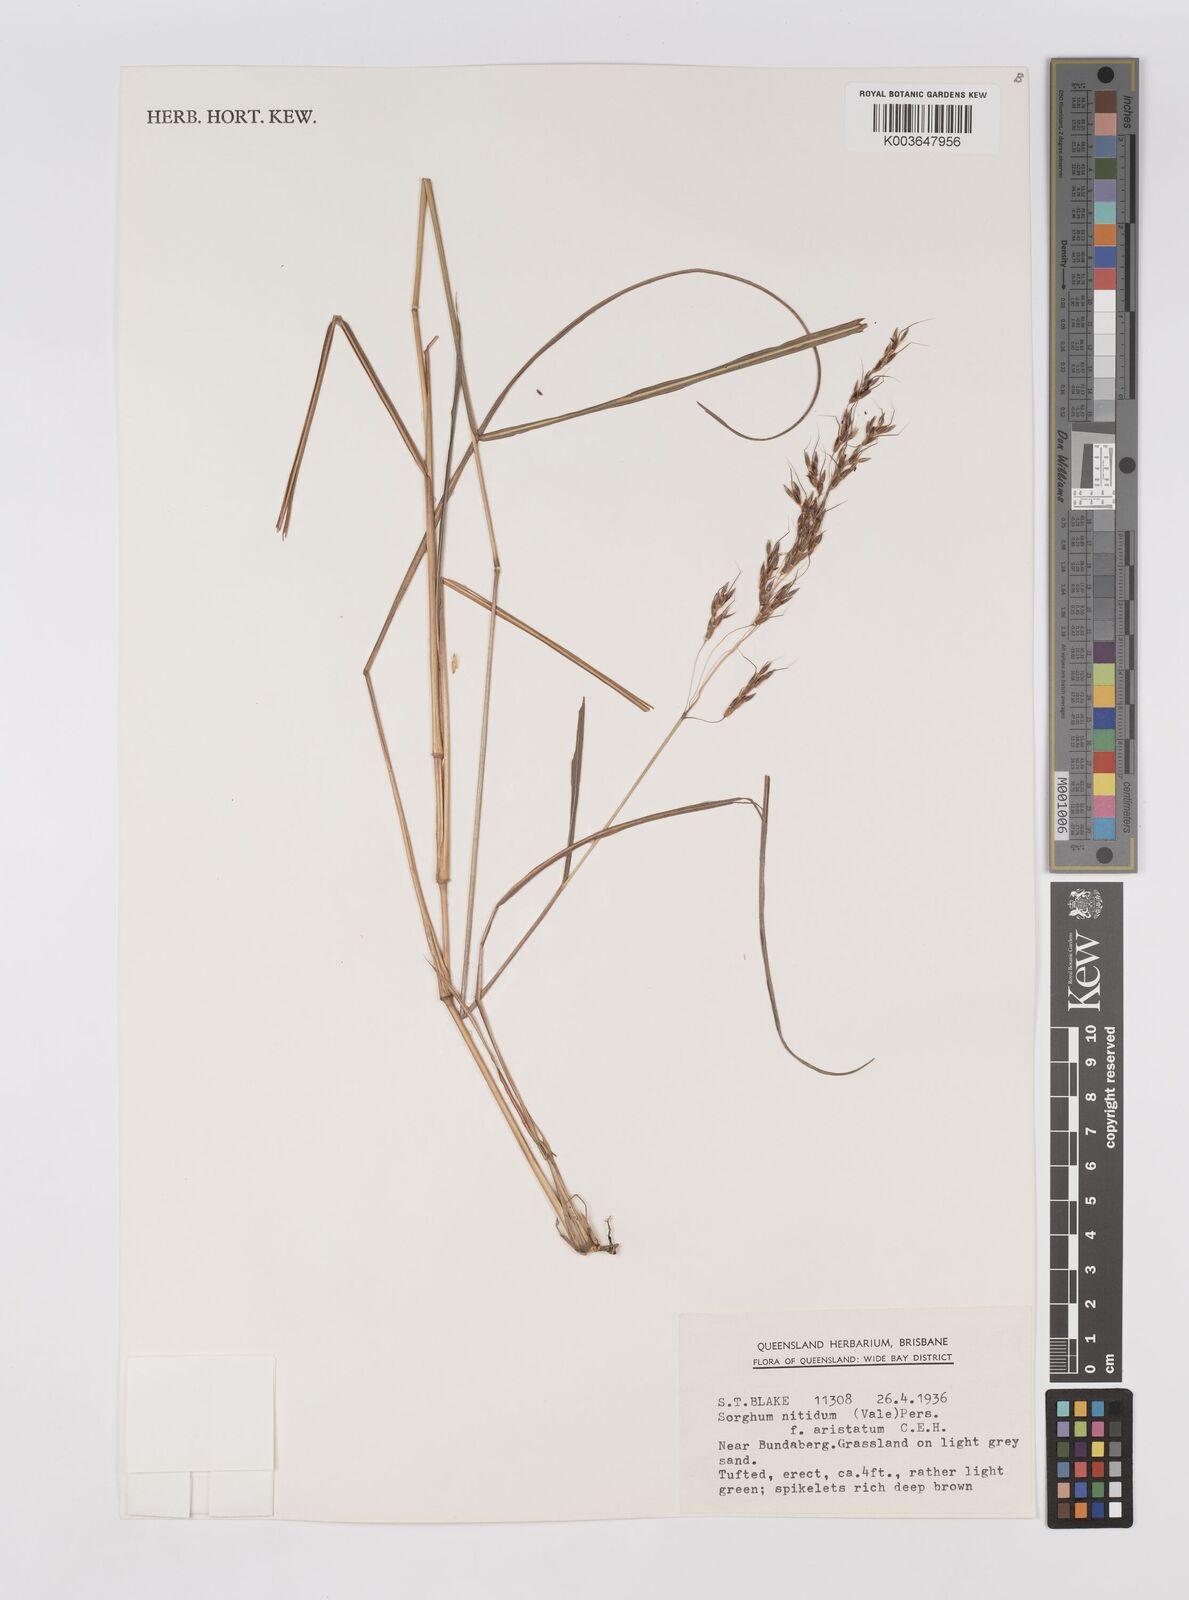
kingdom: Plantae
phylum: Tracheophyta
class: Liliopsida
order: Poales
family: Poaceae
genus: Sorghum
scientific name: Sorghum nitidum
